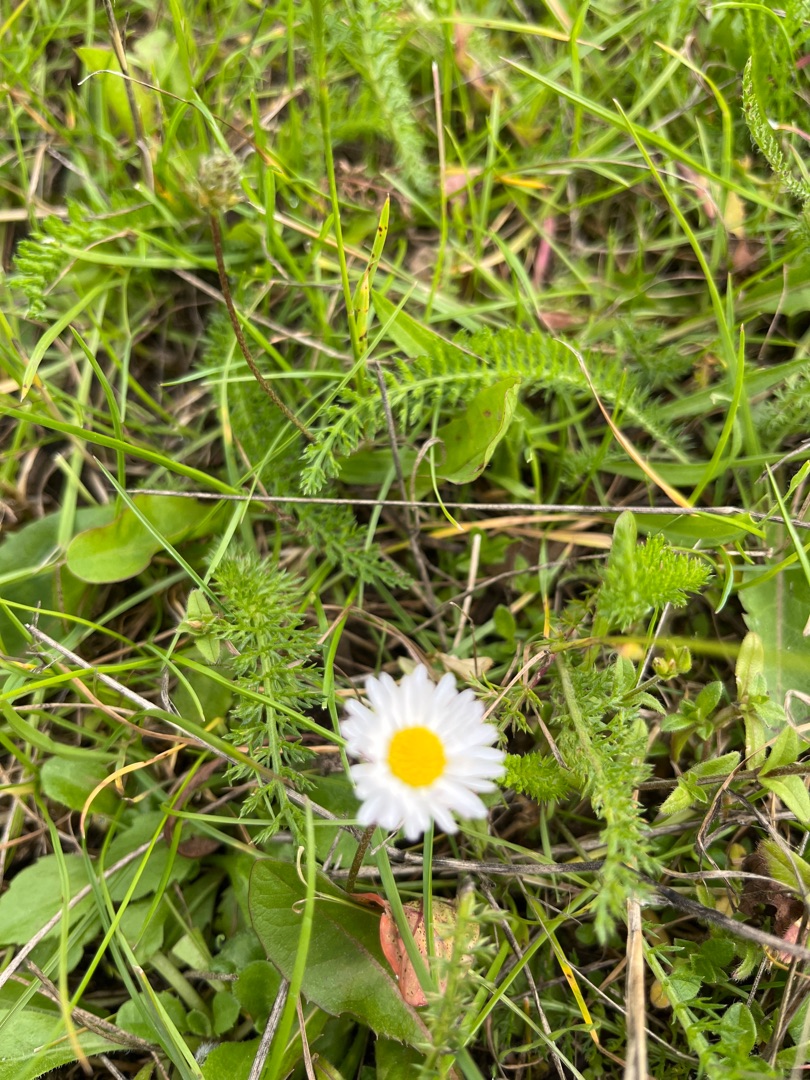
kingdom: Plantae
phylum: Tracheophyta
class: Magnoliopsida
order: Asterales
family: Asteraceae
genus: Bellis
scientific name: Bellis perennis
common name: Tusindfryd
